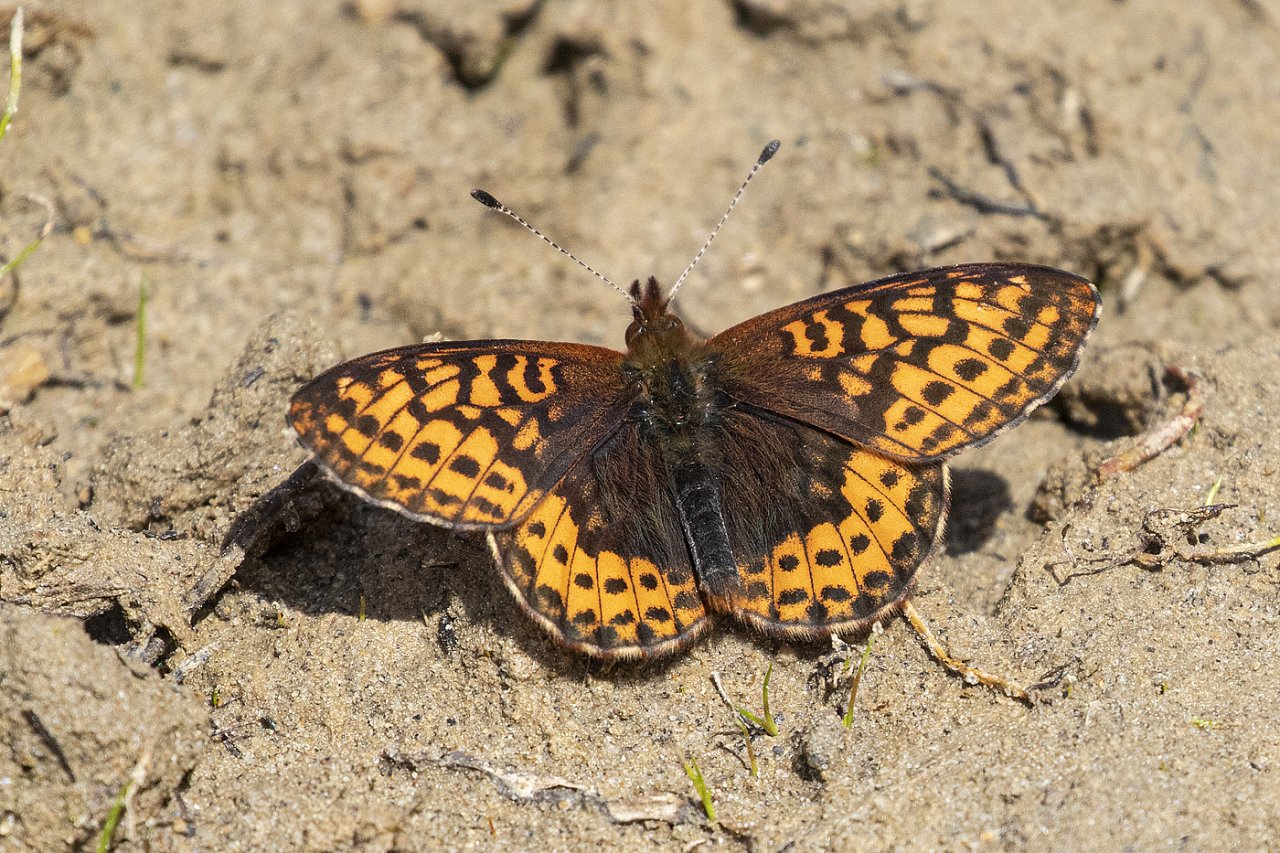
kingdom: Animalia
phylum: Arthropoda
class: Insecta
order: Lepidoptera
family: Nymphalidae
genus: Boloria
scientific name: Boloria frigga
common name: Frigga Fritillary
